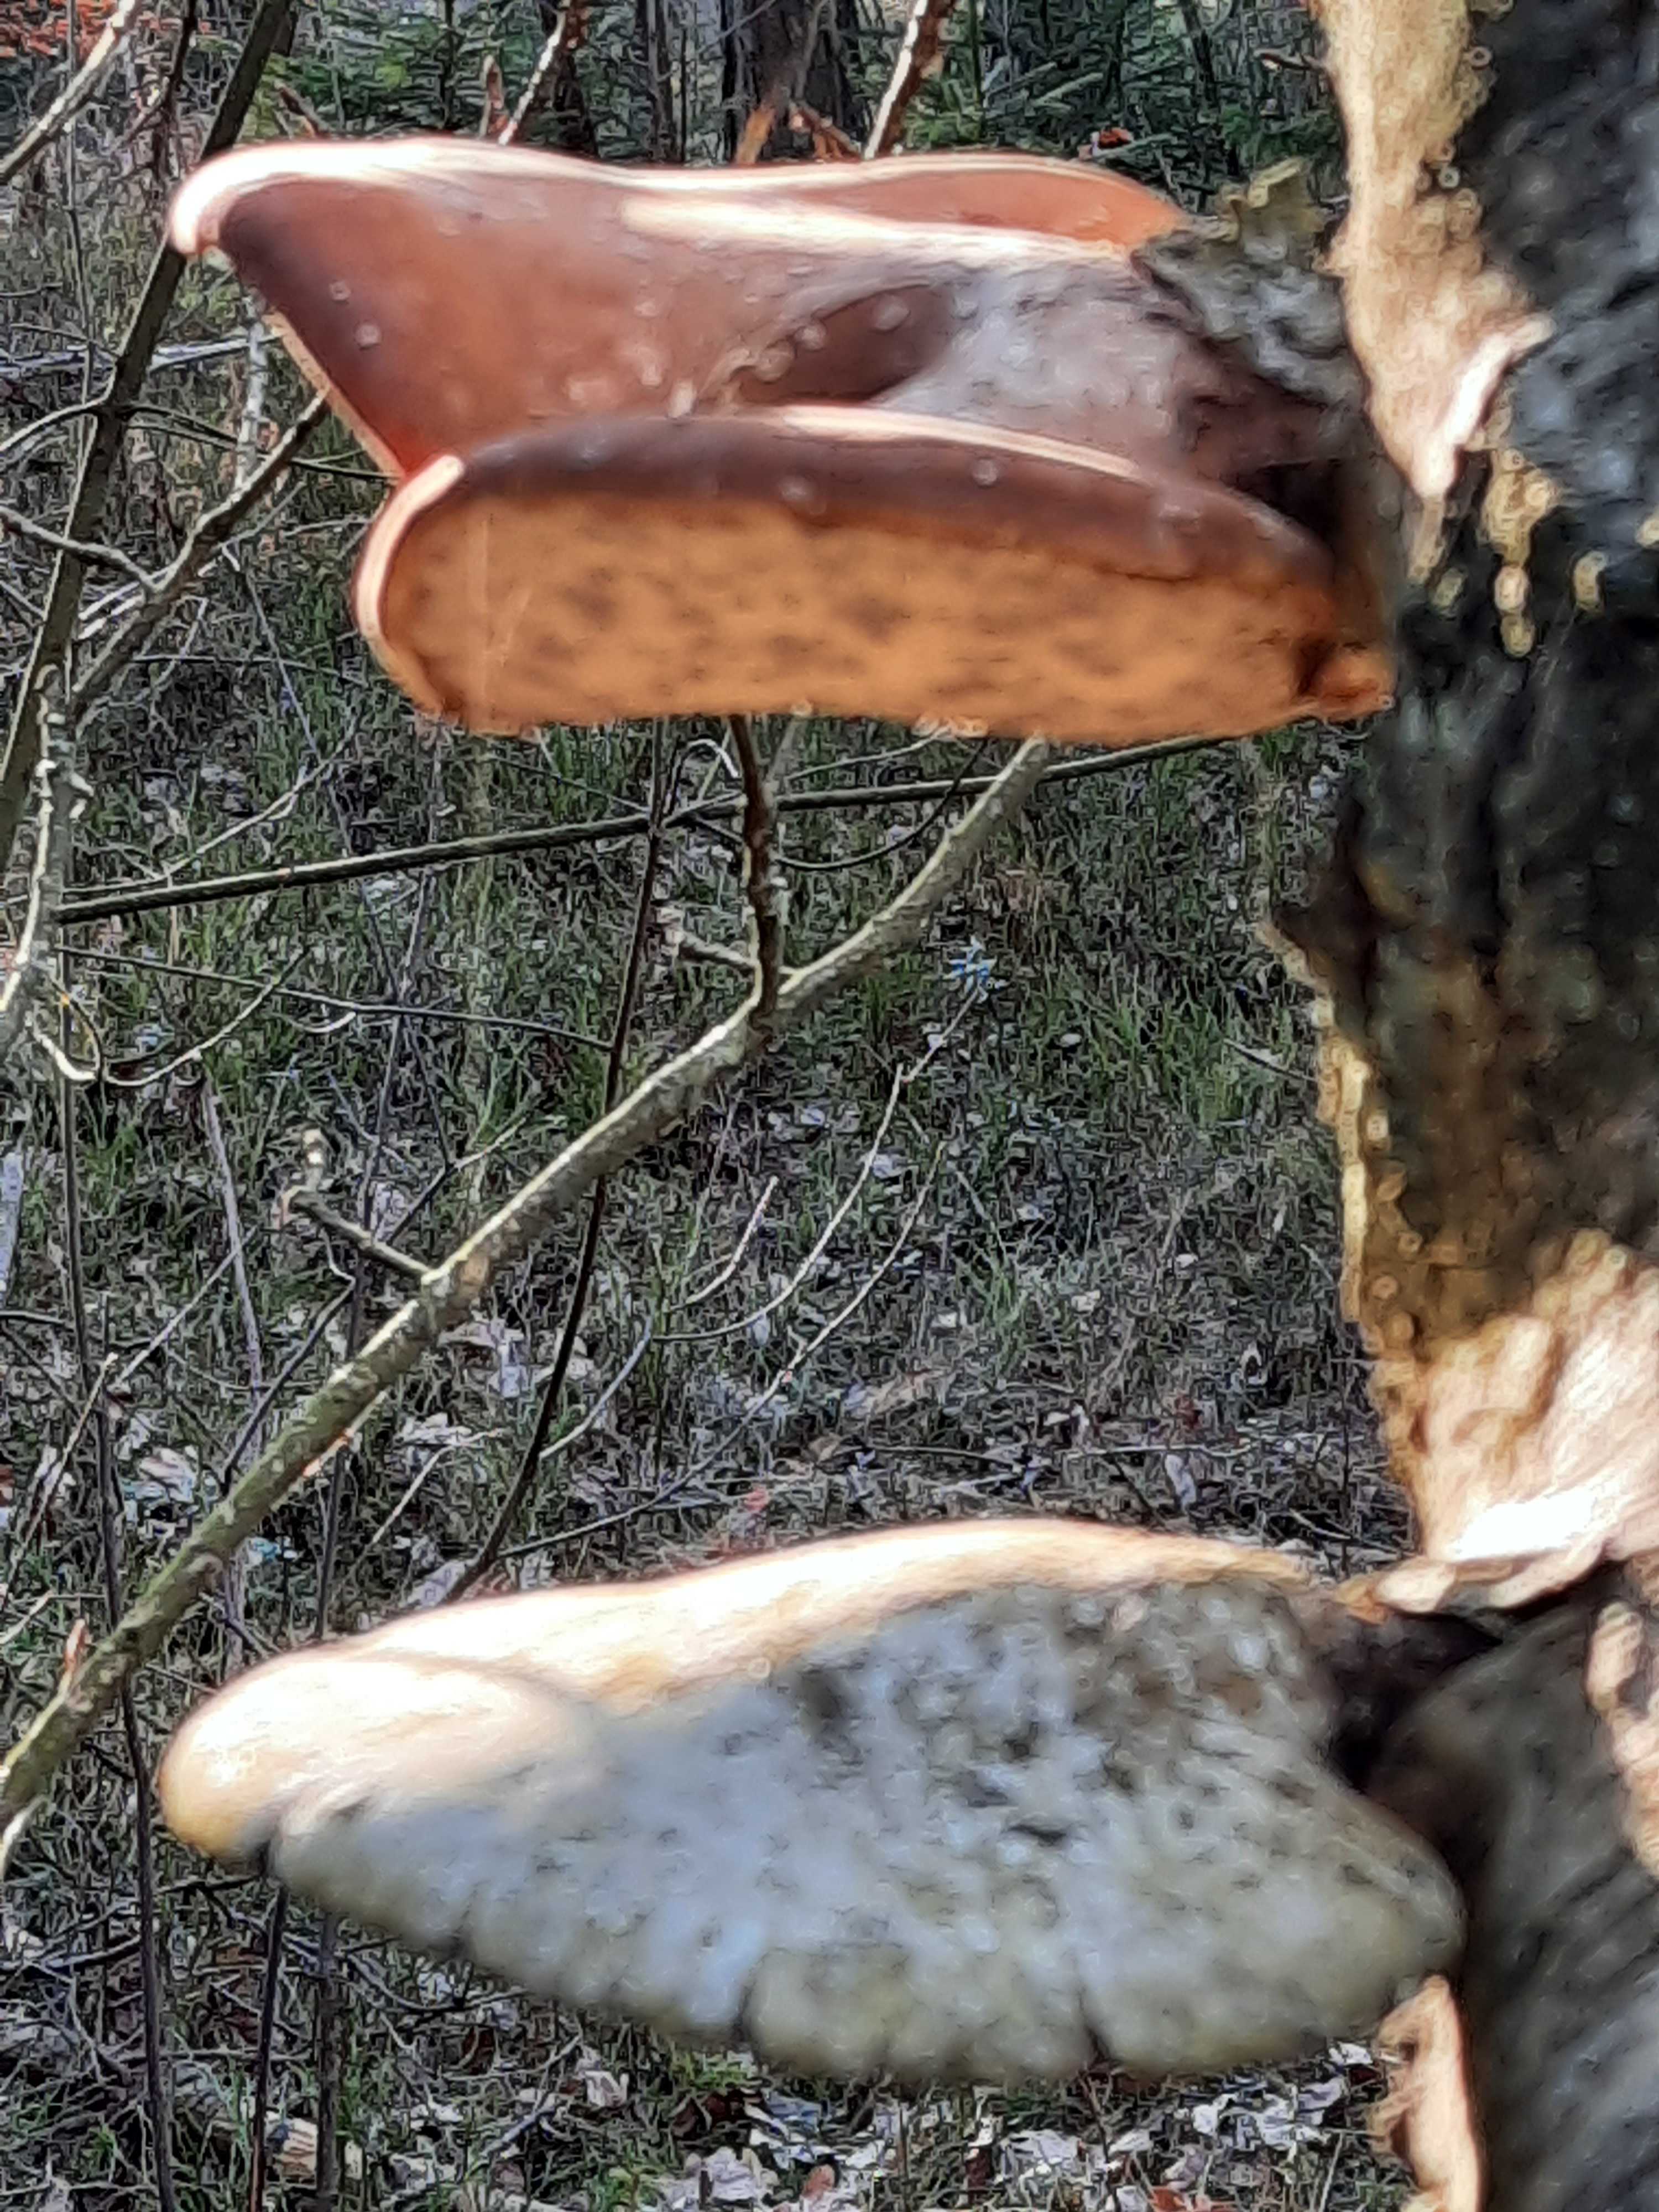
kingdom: Fungi
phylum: Basidiomycota
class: Agaricomycetes
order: Polyporales
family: Fomitopsidaceae
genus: Fomitopsis
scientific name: Fomitopsis betulina
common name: birkeporesvamp
